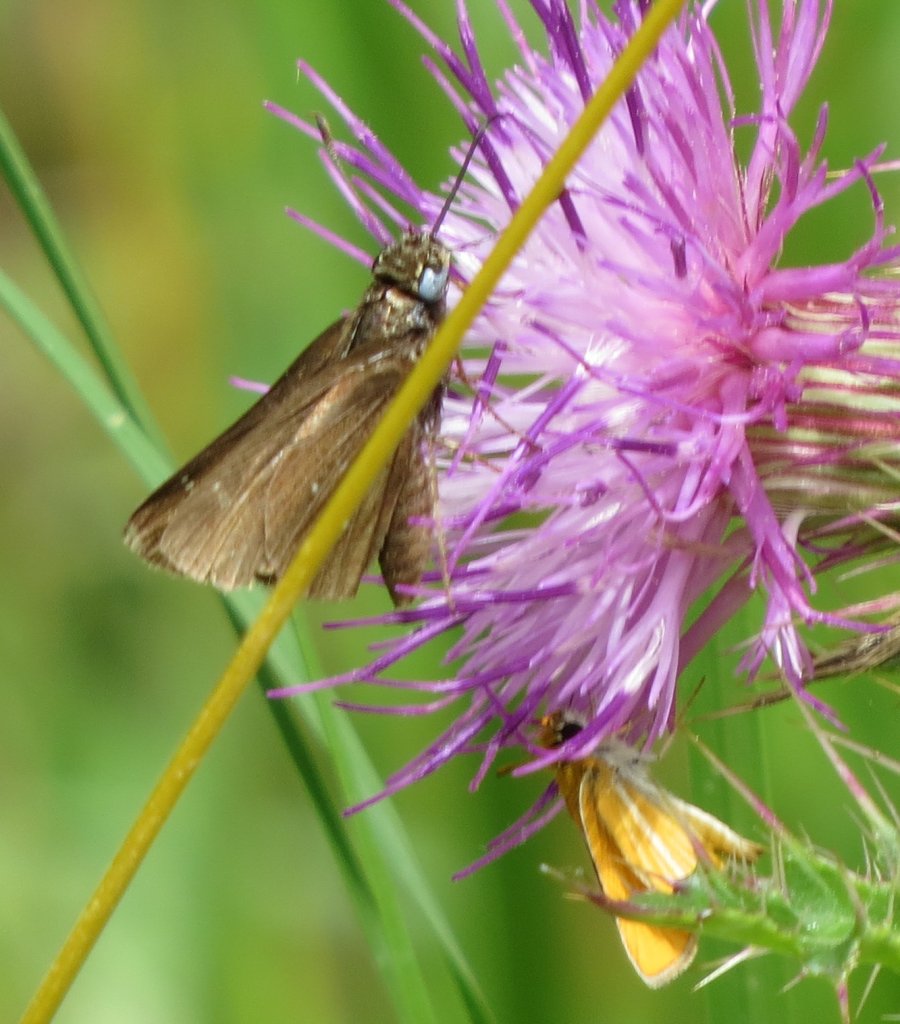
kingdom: Animalia
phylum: Arthropoda
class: Insecta
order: Lepidoptera
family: Hesperiidae
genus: Lerema
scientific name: Lerema accius
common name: Clouded Skipper
